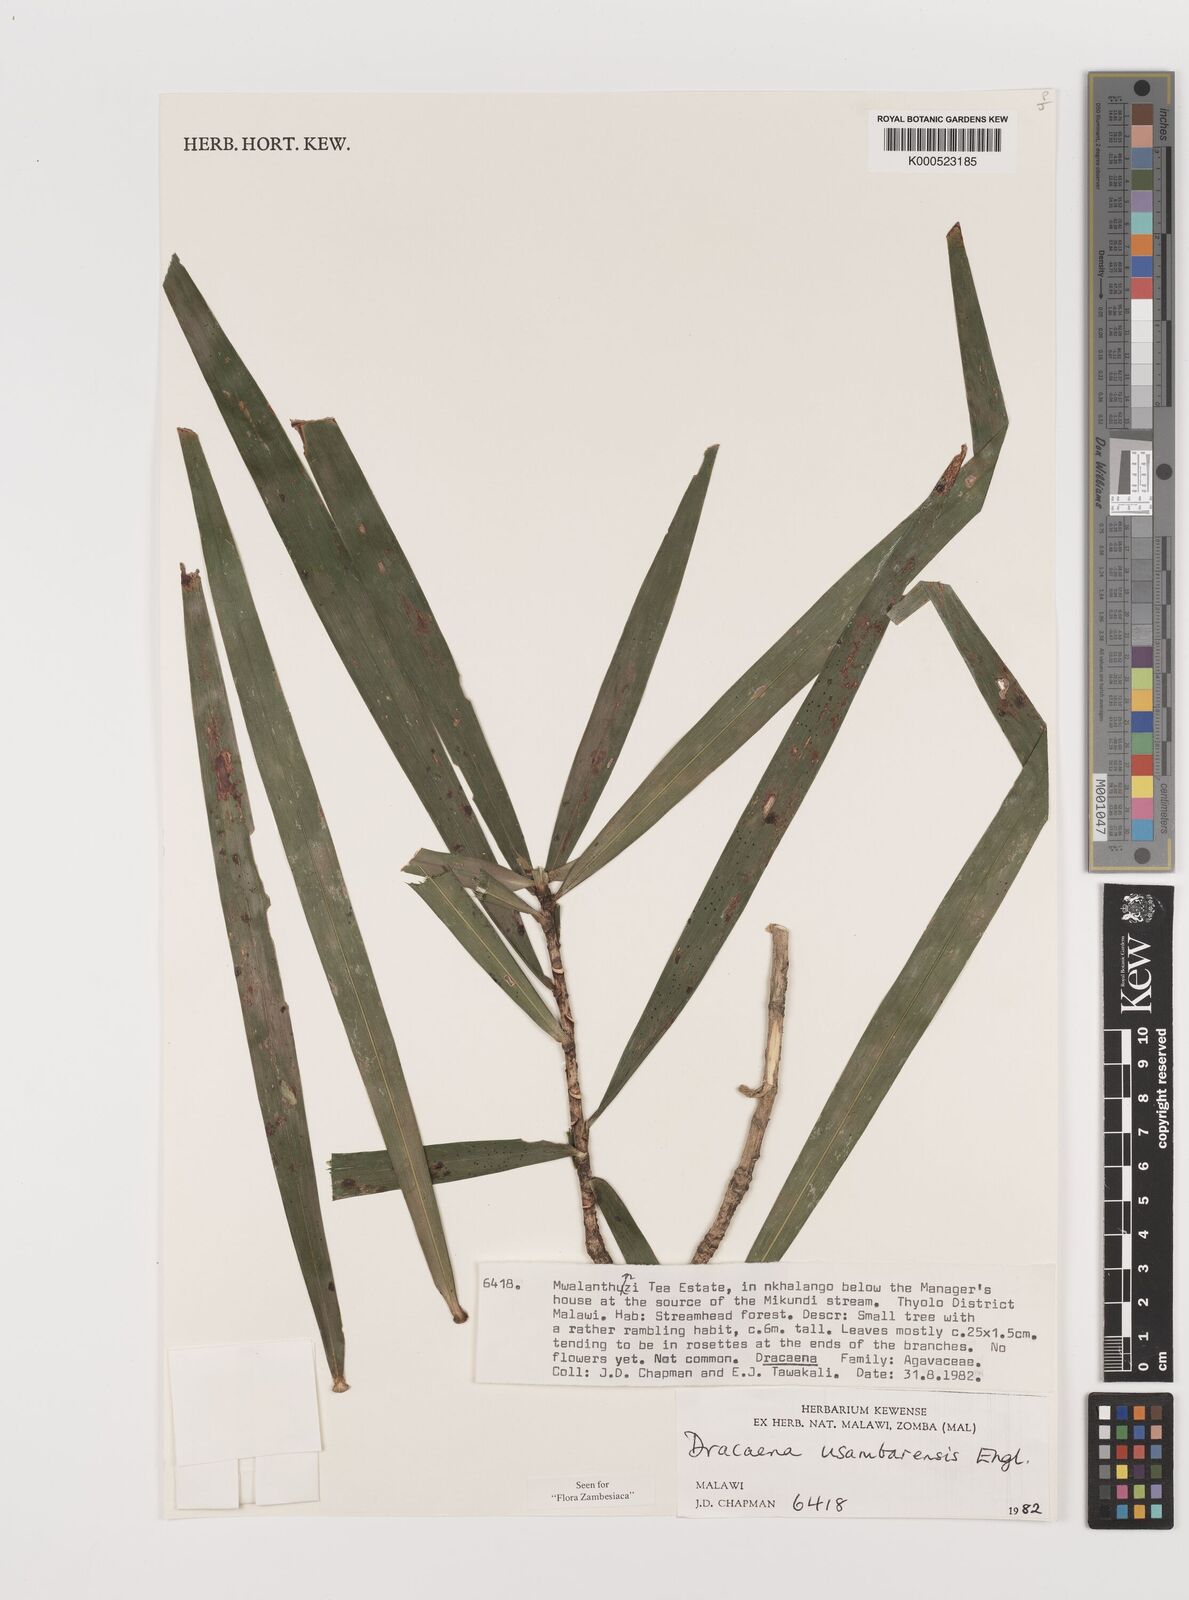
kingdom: Plantae
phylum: Tracheophyta
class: Liliopsida
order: Asparagales
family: Asparagaceae
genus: Dracaena
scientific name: Dracaena usambarensis
